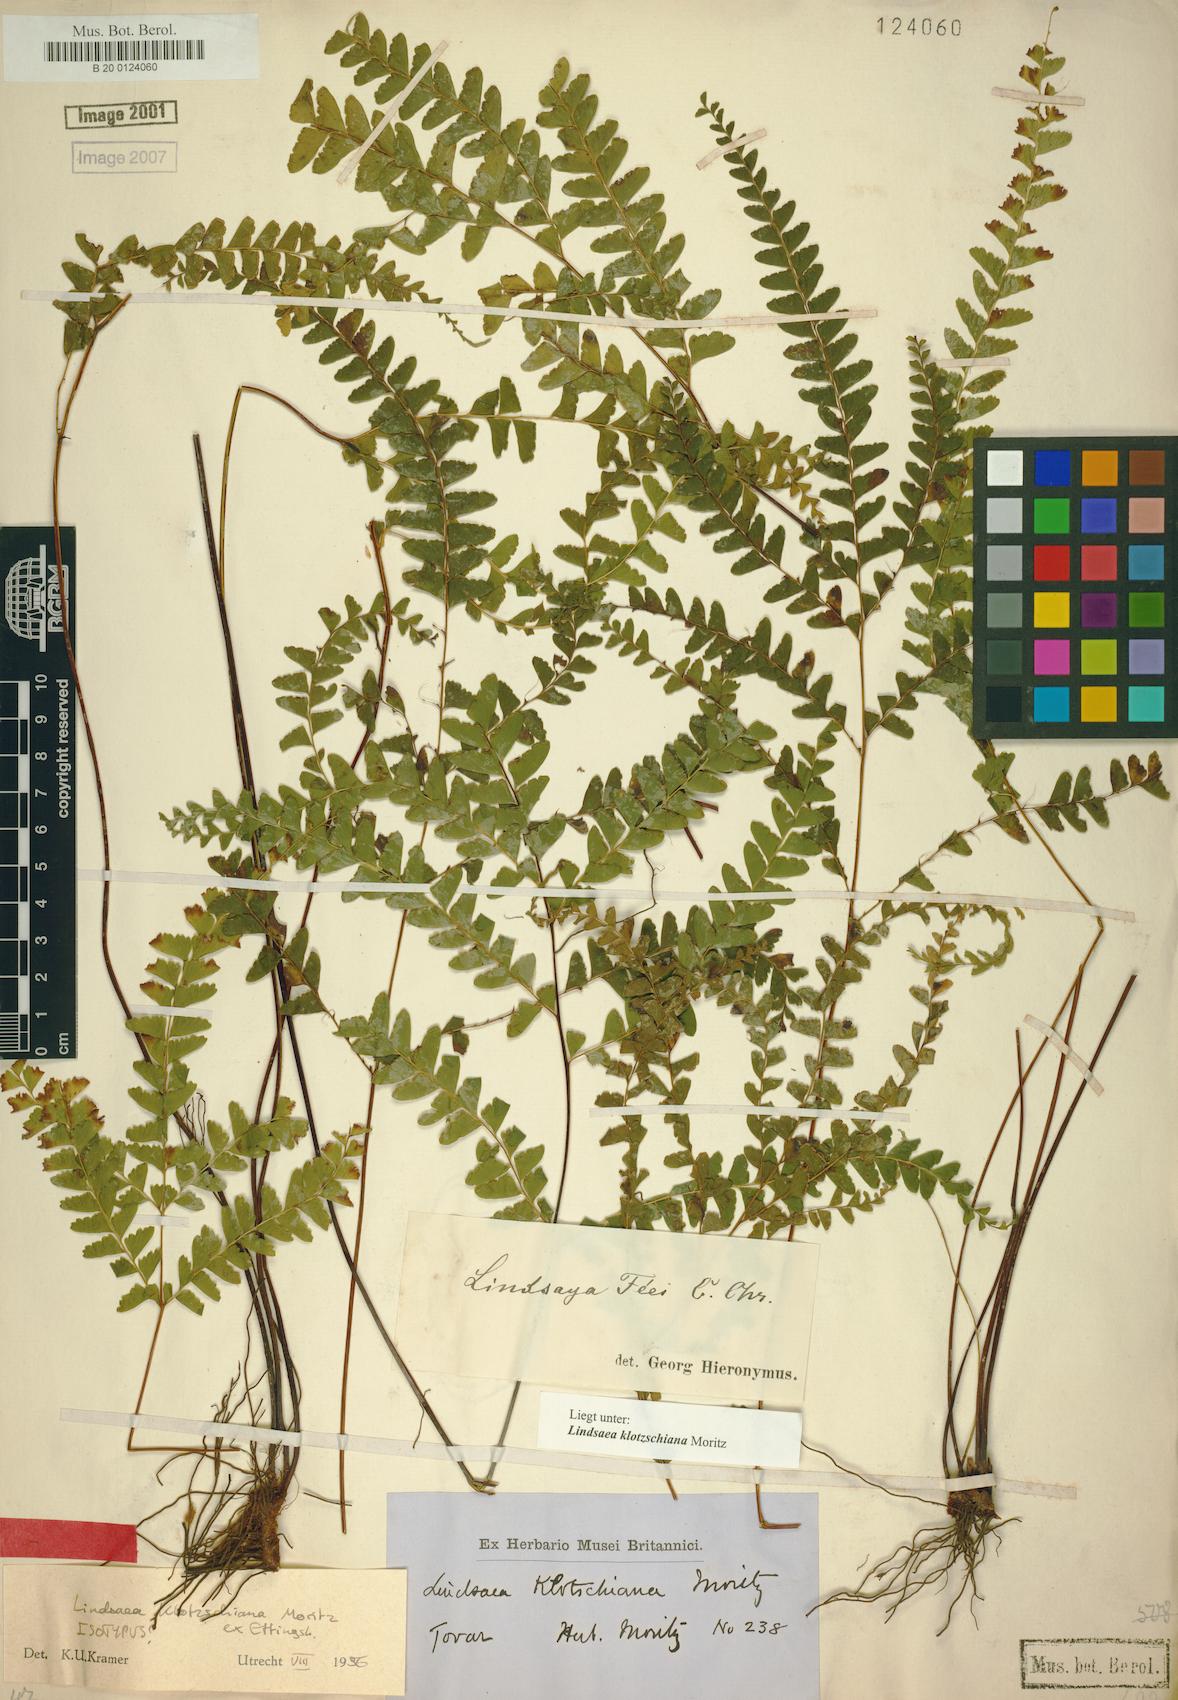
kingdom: Plantae
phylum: Tracheophyta
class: Polypodiopsida
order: Polypodiales
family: Lindsaeaceae
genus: Lindsaea
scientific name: Lindsaea klotzschiana
